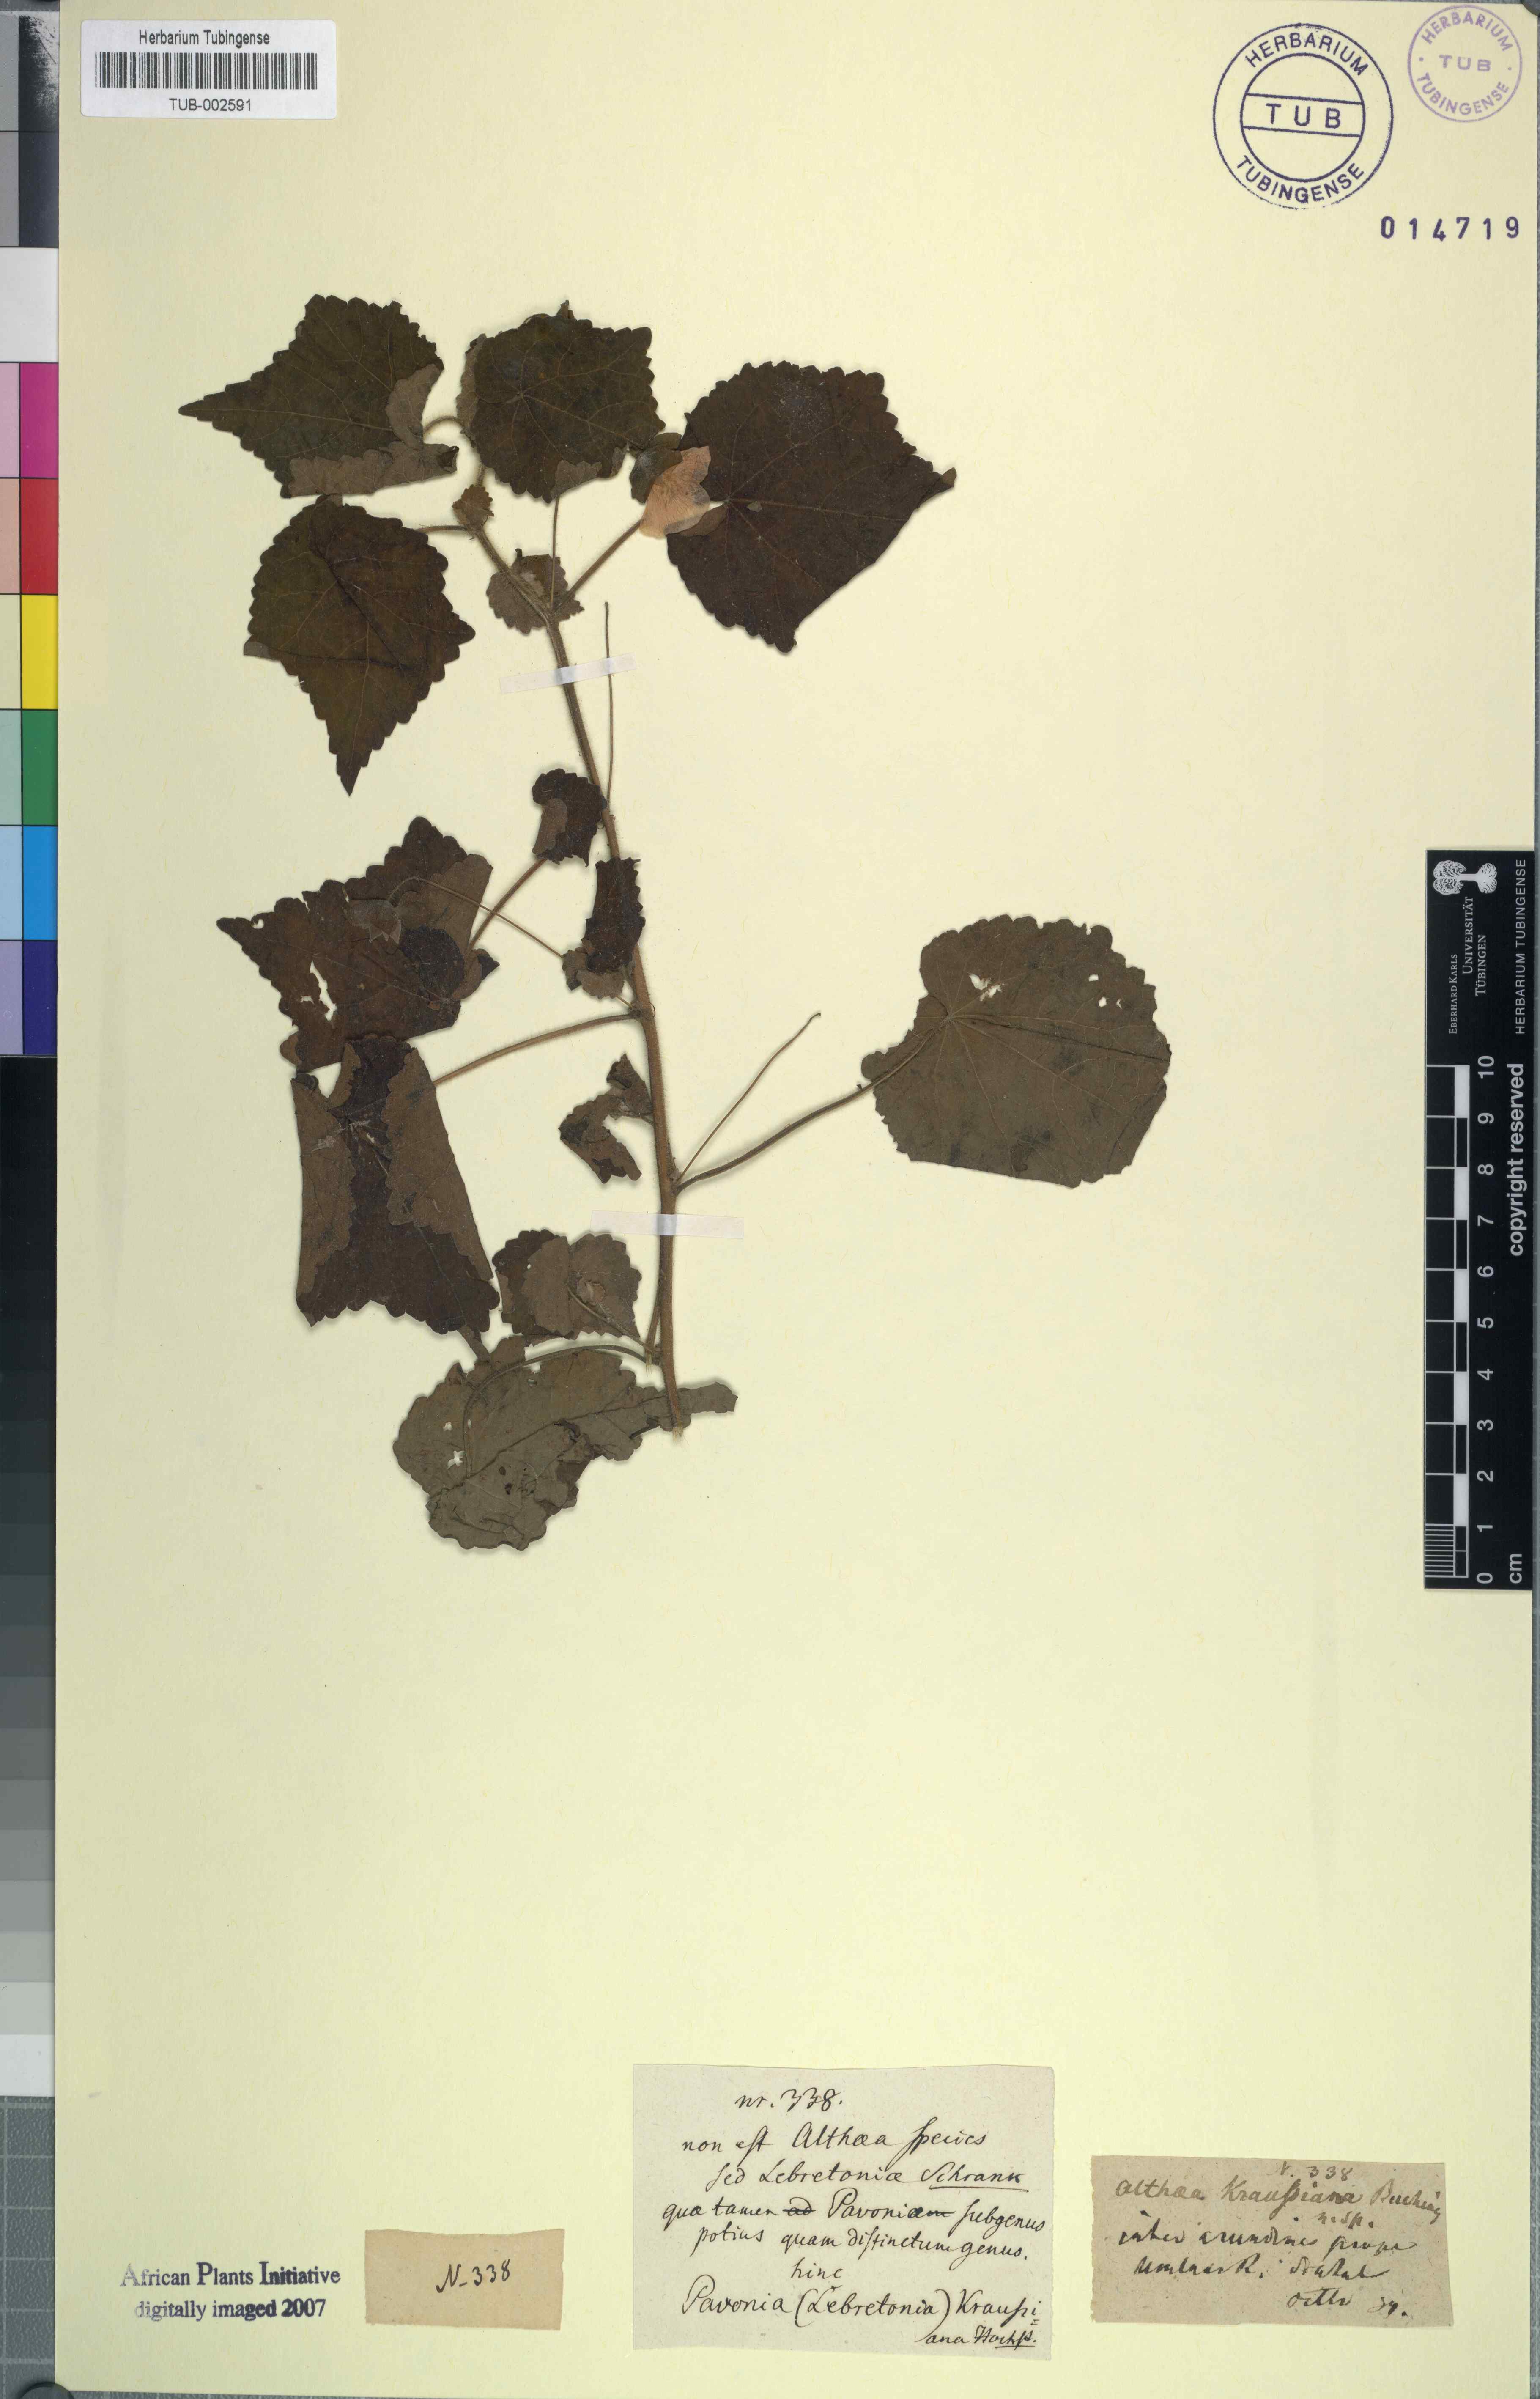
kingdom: Plantae
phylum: Tracheophyta
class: Magnoliopsida
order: Malvales
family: Malvaceae
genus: Pavonia
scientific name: Pavonia burchellii
